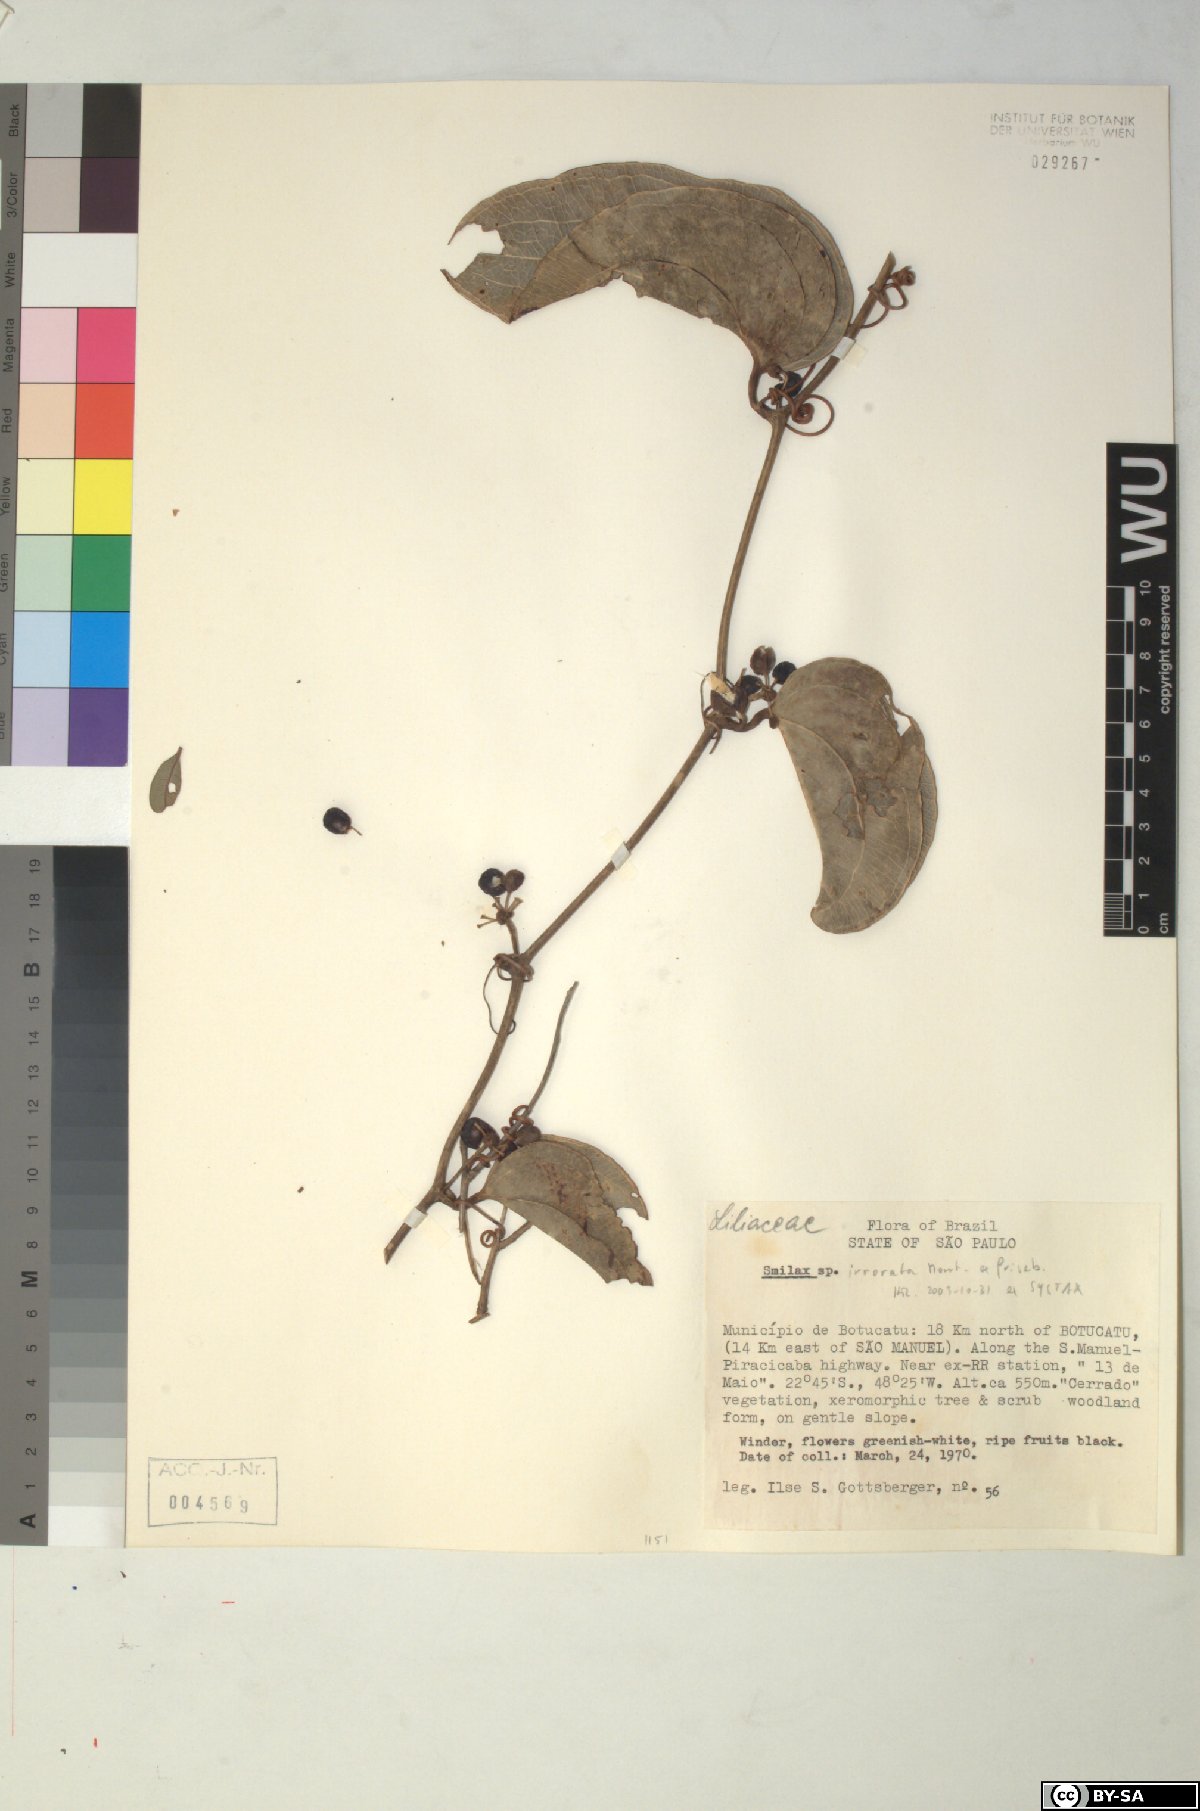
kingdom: Plantae
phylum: Tracheophyta
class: Liliopsida
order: Liliales
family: Smilacaceae
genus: Smilax
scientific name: Smilax irrorata
